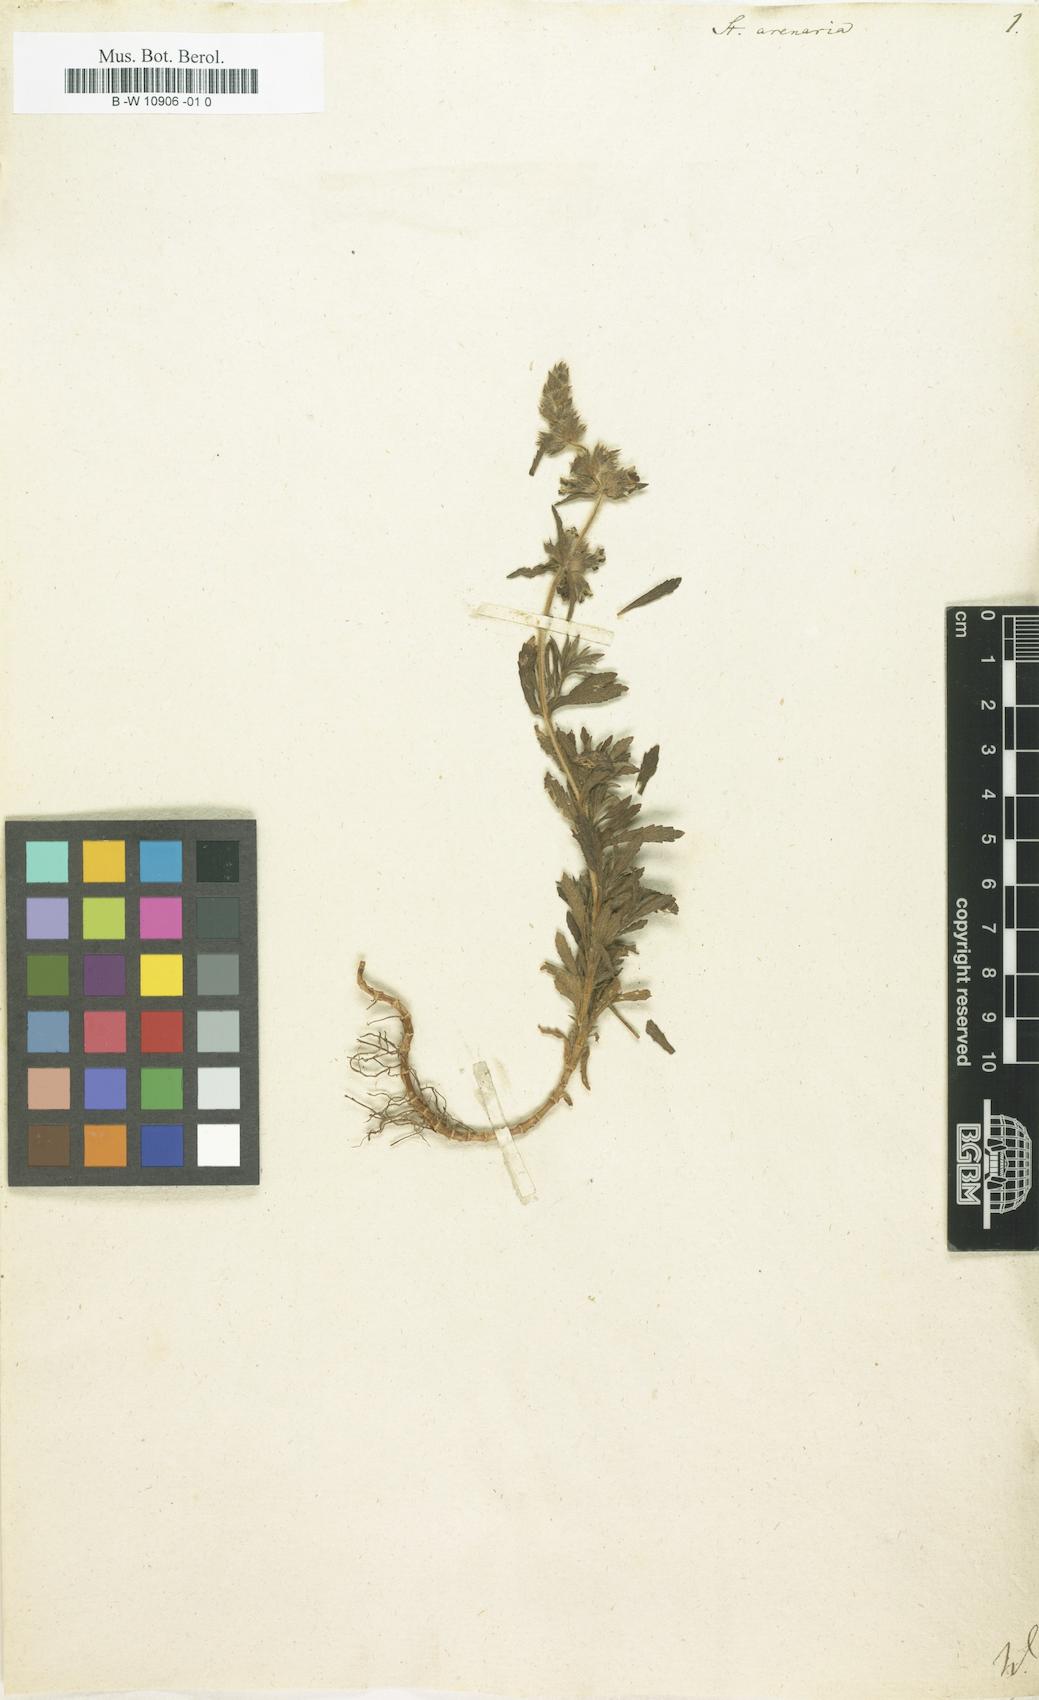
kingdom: Plantae
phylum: Tracheophyta
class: Magnoliopsida
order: Lamiales
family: Lamiaceae
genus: Stachys
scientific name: Stachys arenaria
